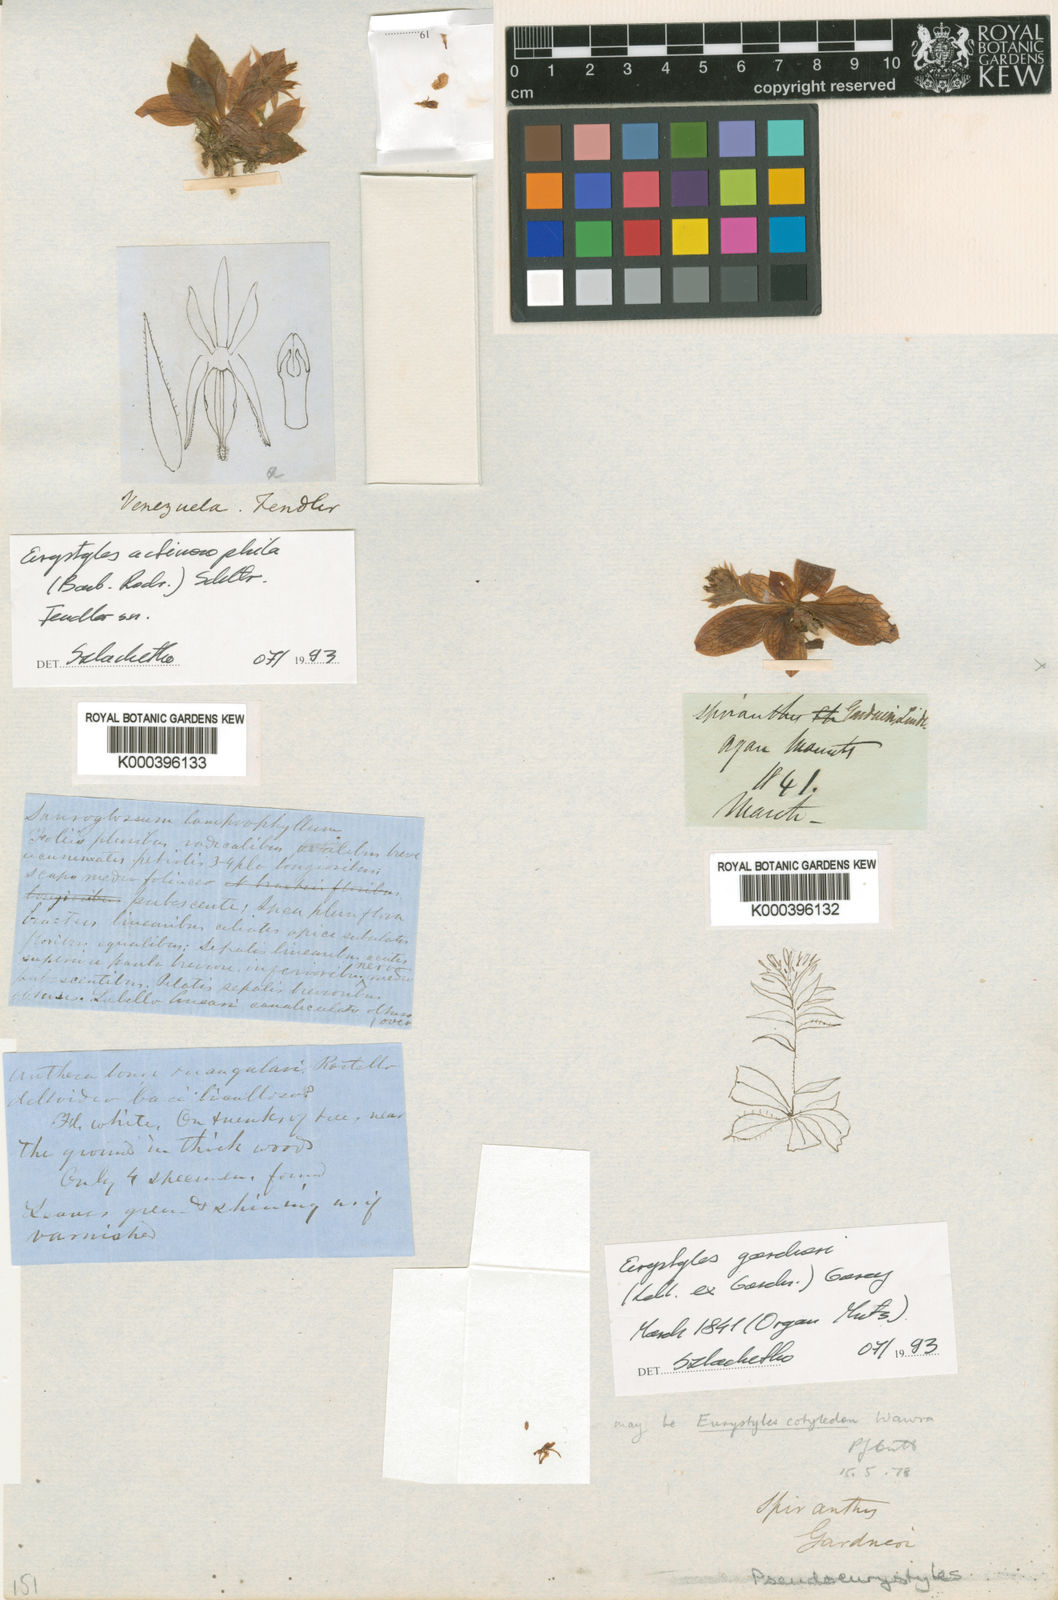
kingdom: Plantae
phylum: Tracheophyta
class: Liliopsida
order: Asparagales
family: Orchidaceae
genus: Eurystyles
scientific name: Eurystyles gardneri
